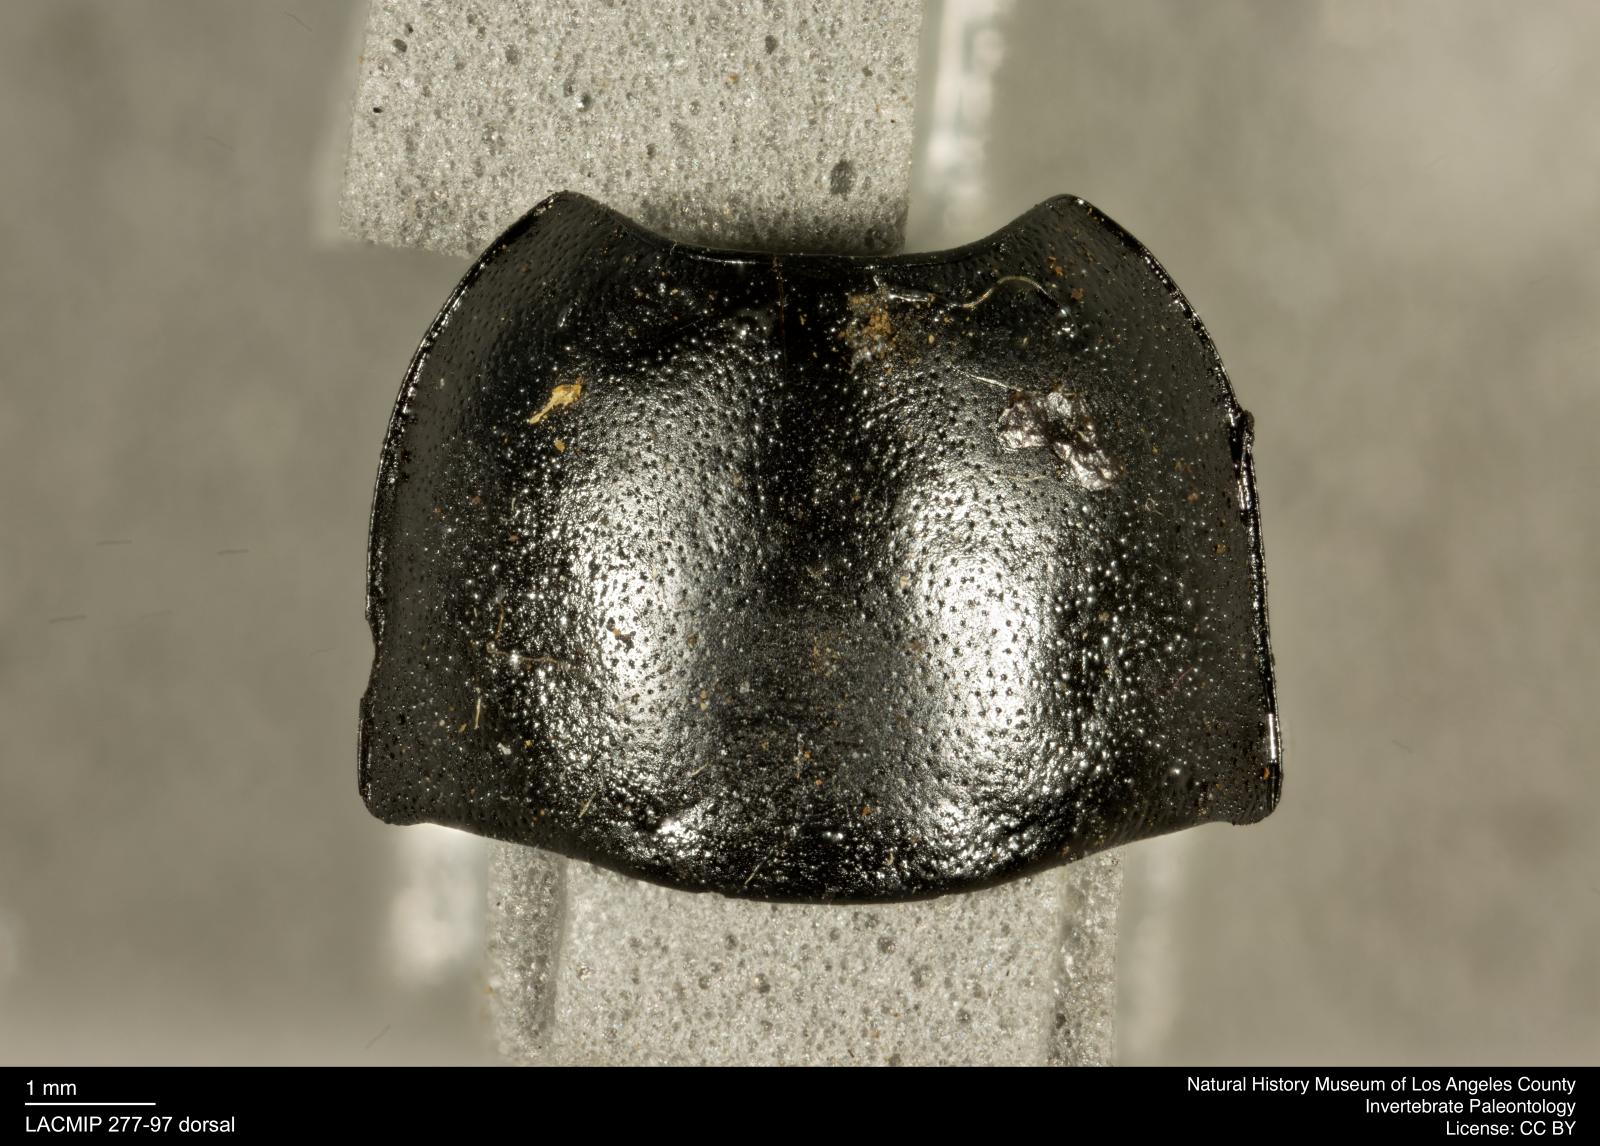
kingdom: Animalia
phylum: Arthropoda
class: Insecta
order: Coleoptera
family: Tenebrionidae
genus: Coniontis
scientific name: Coniontis abdominalis
